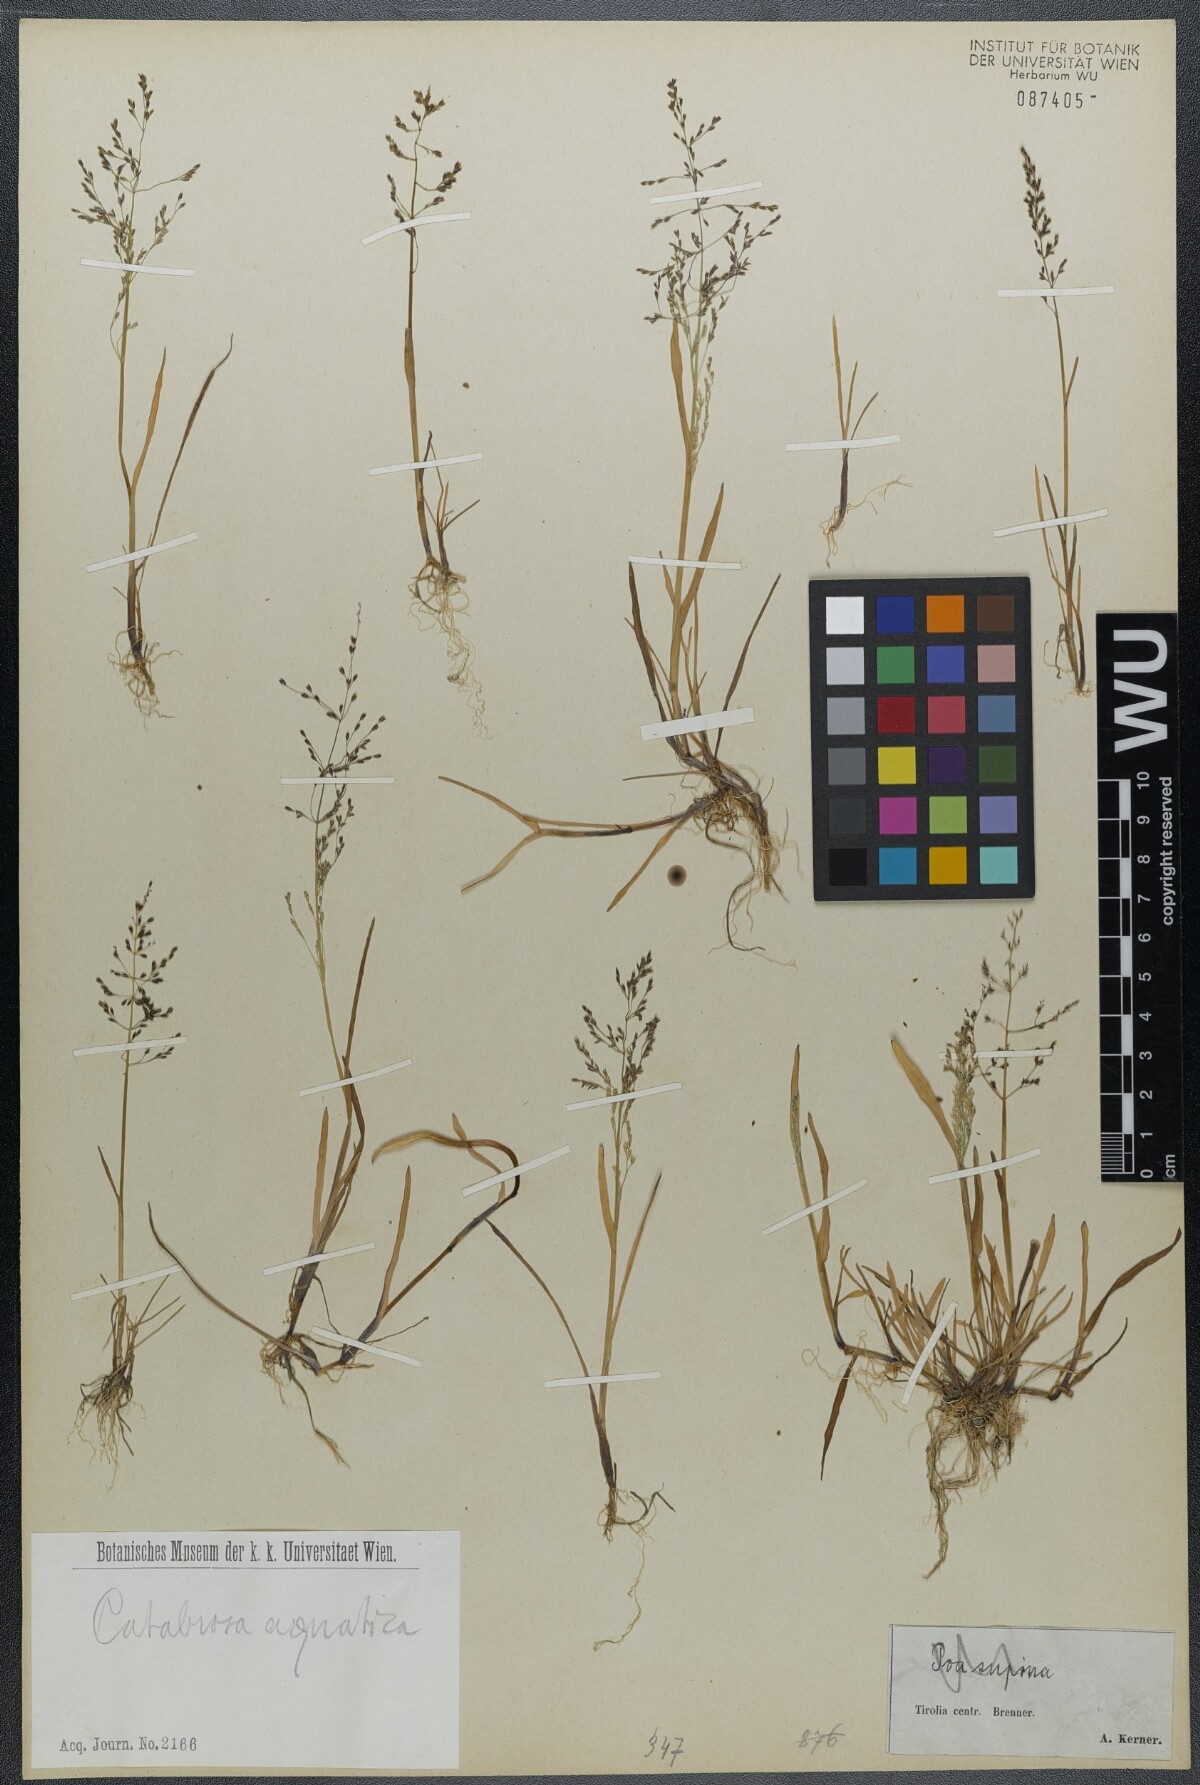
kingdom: Plantae
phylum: Tracheophyta
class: Liliopsida
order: Poales
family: Poaceae
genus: Catabrosa
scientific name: Catabrosa aquatica
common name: Whorl-grass
